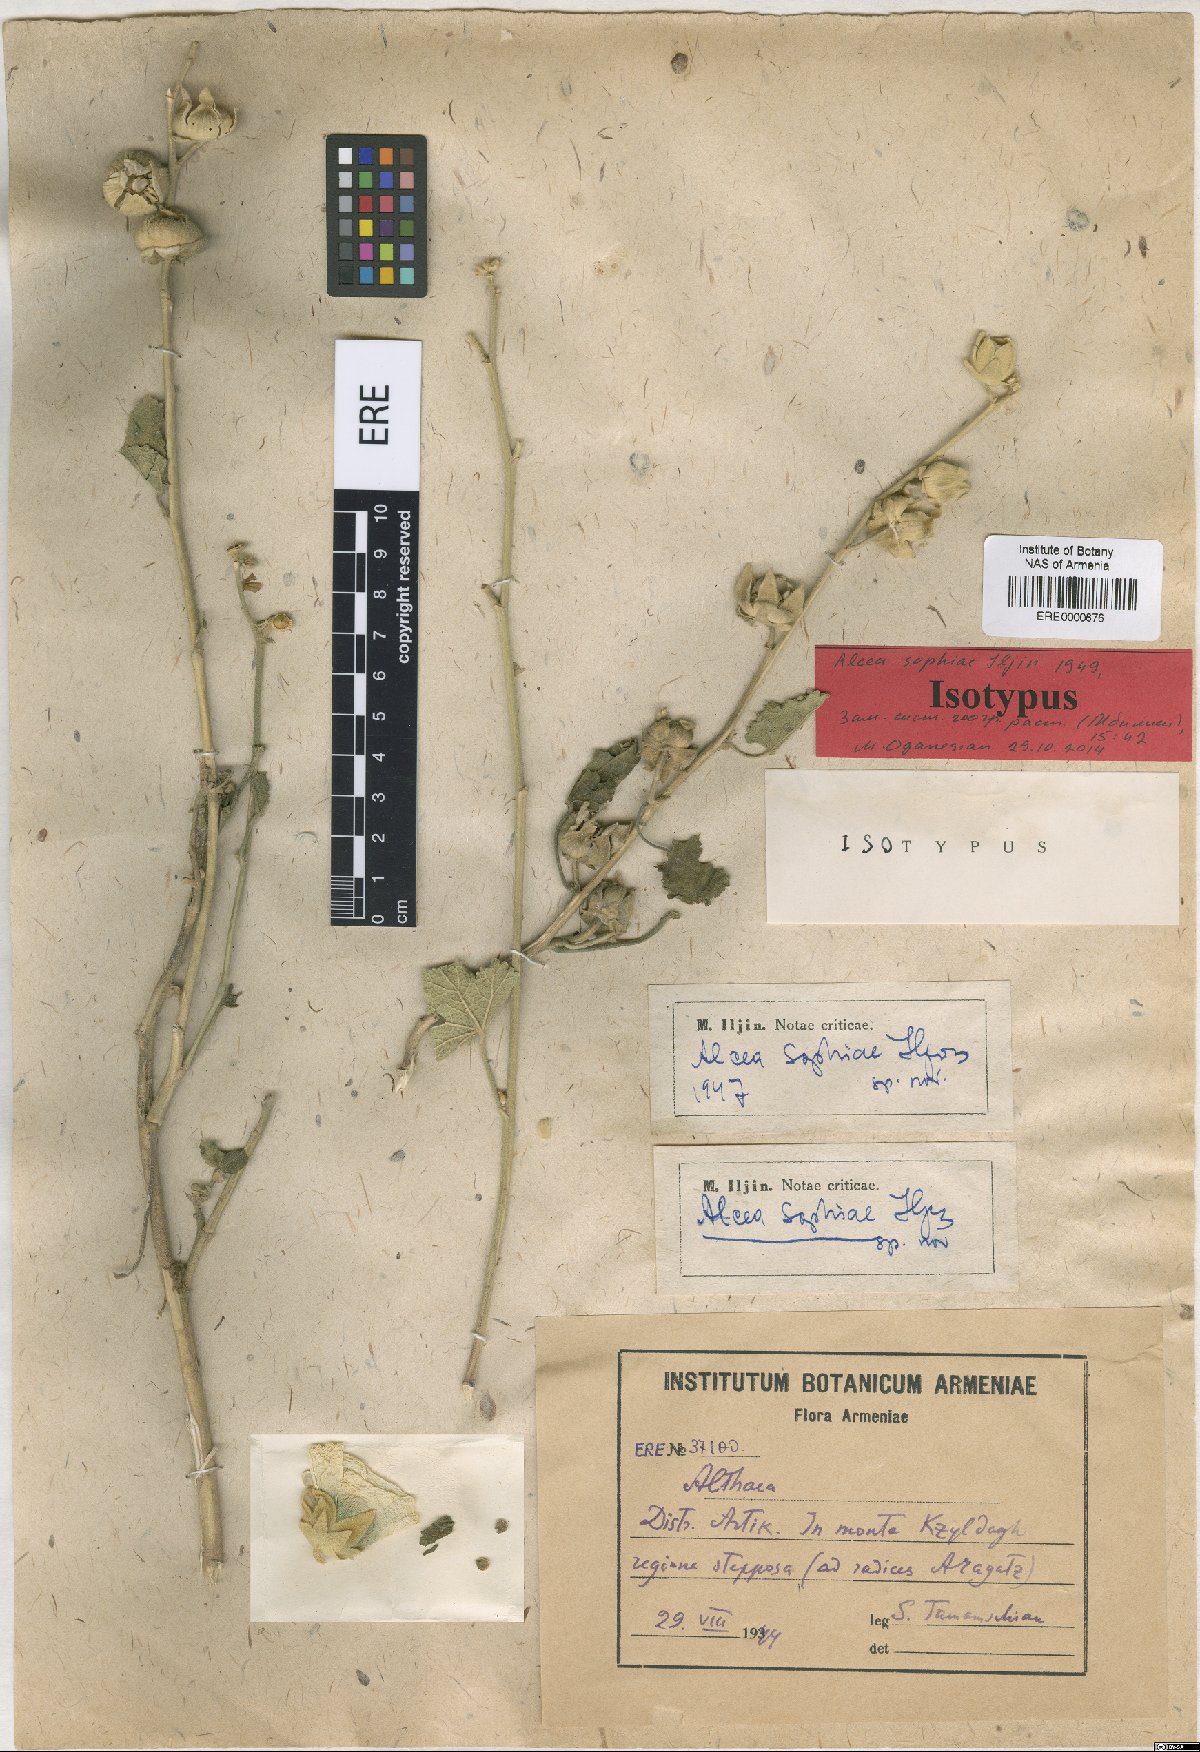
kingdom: Plantae
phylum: Tracheophyta
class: Magnoliopsida
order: Malvales
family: Malvaceae
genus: Alcea
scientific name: Alcea sophiae
